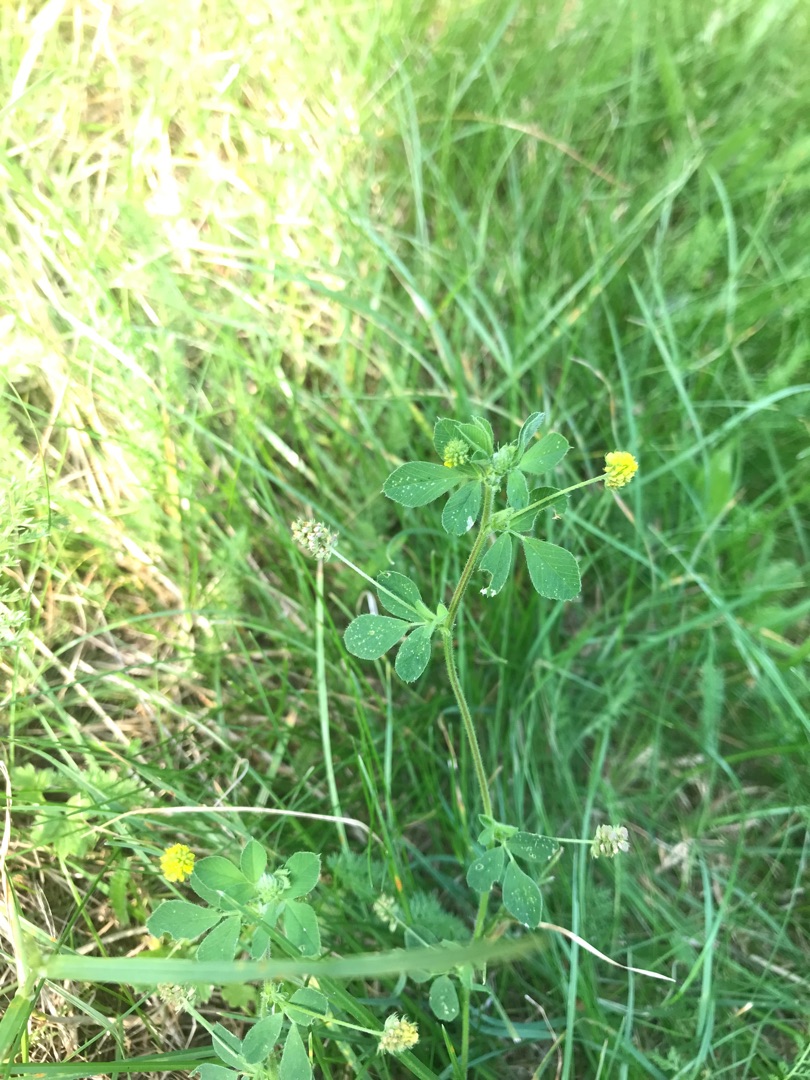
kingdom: Plantae
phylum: Tracheophyta
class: Magnoliopsida
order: Fabales
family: Fabaceae
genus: Medicago
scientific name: Medicago lupulina
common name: Humle-sneglebælg
